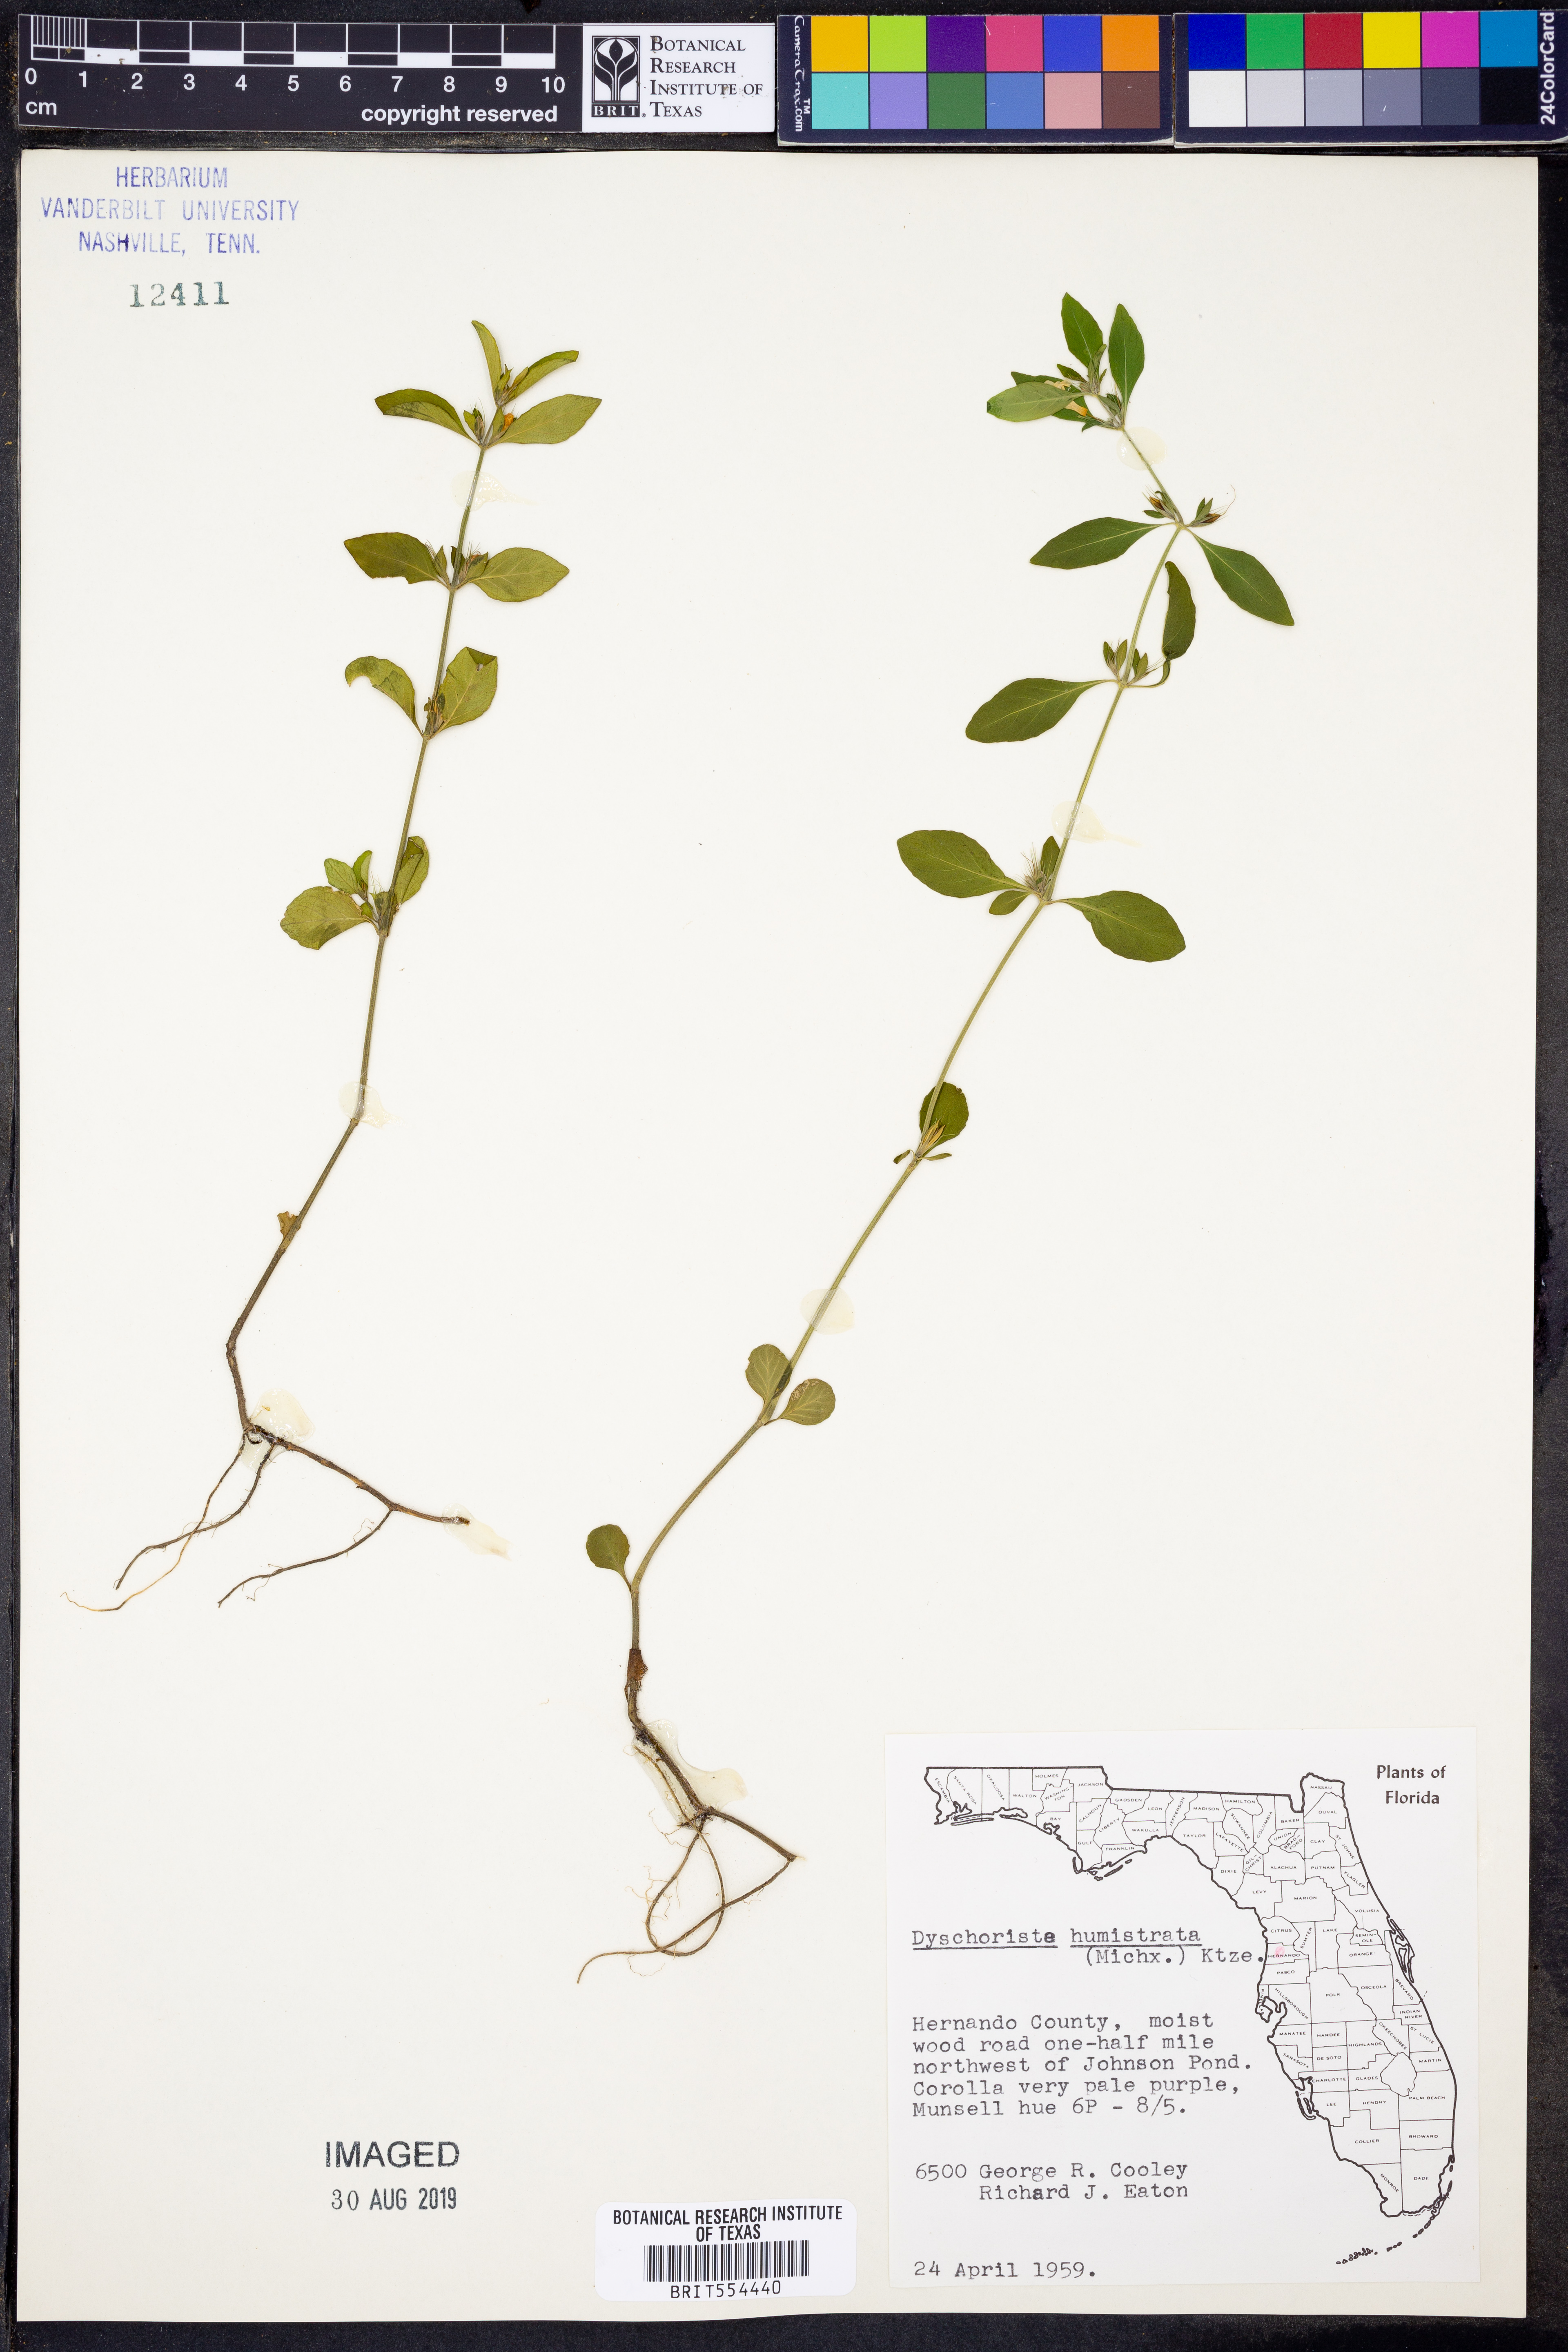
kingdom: Plantae
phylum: Tracheophyta
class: Magnoliopsida
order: Lamiales
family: Acanthaceae
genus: Dyschoriste
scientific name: Dyschoriste humistrata
